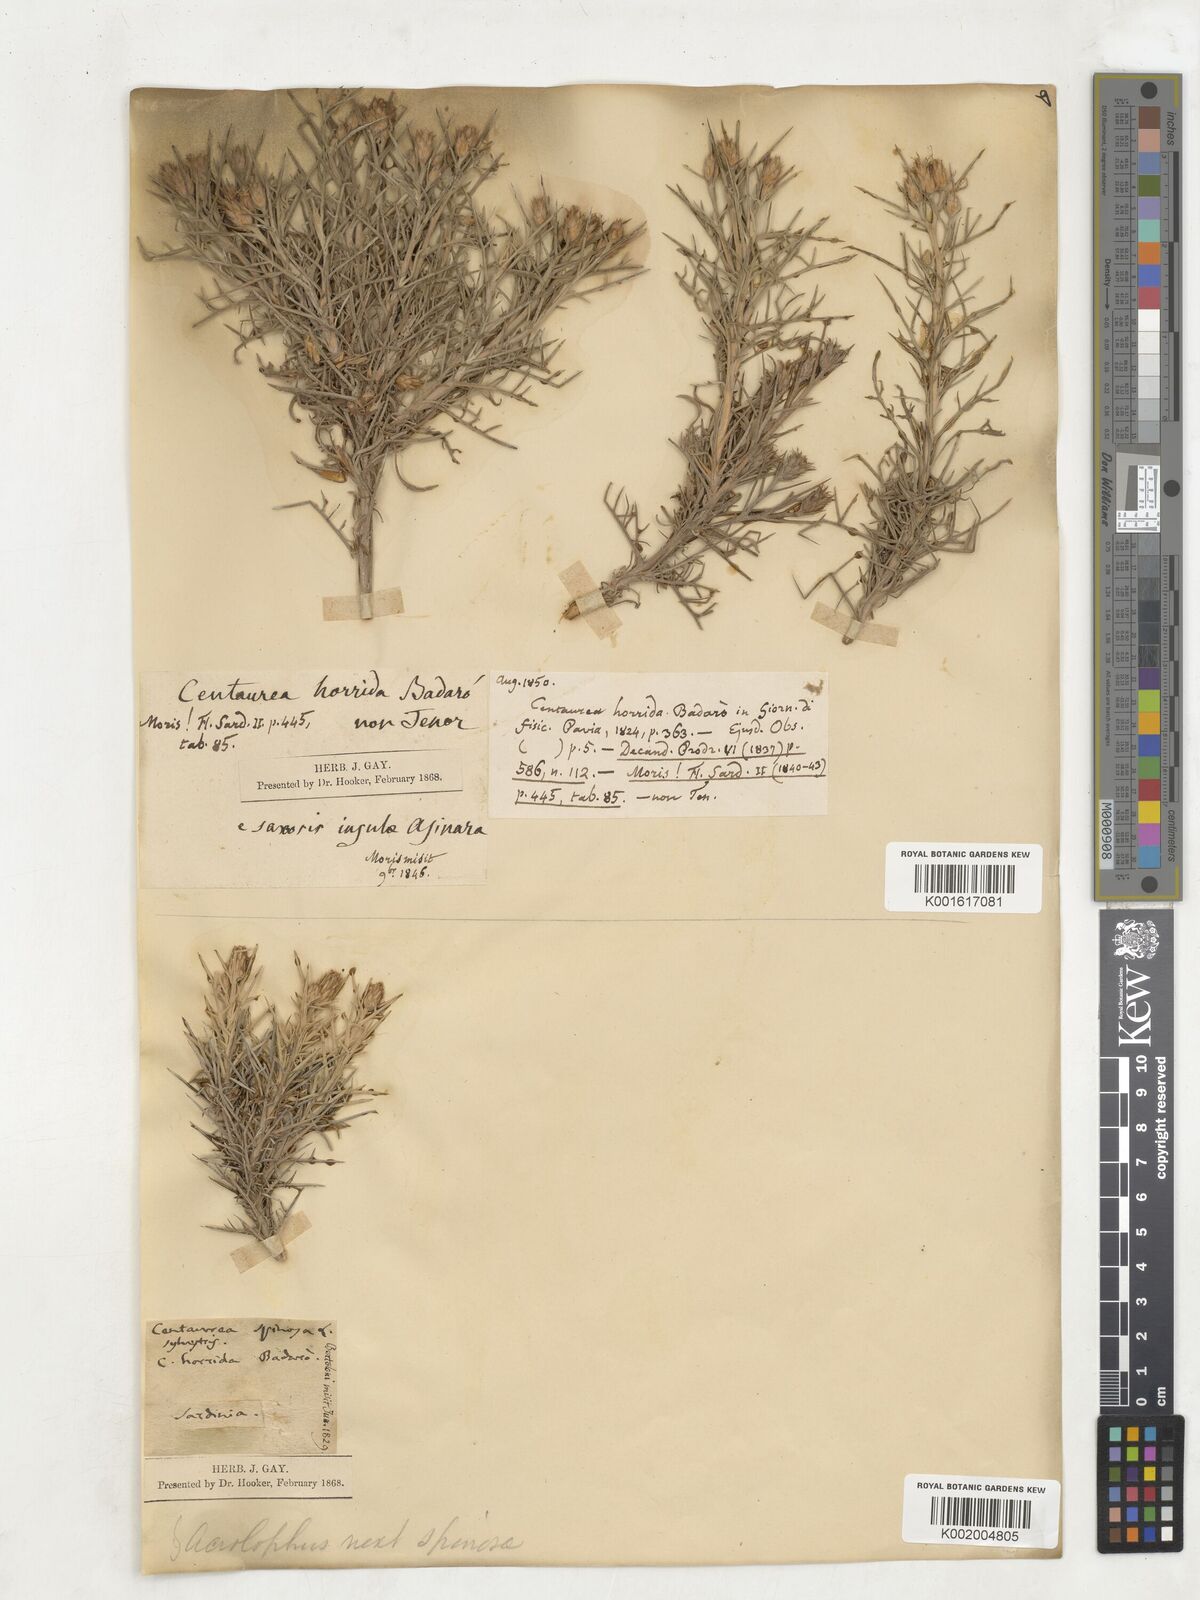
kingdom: Plantae
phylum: Tracheophyta
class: Magnoliopsida
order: Asterales
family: Asteraceae
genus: Centaurea
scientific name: Centaurea spinosa
